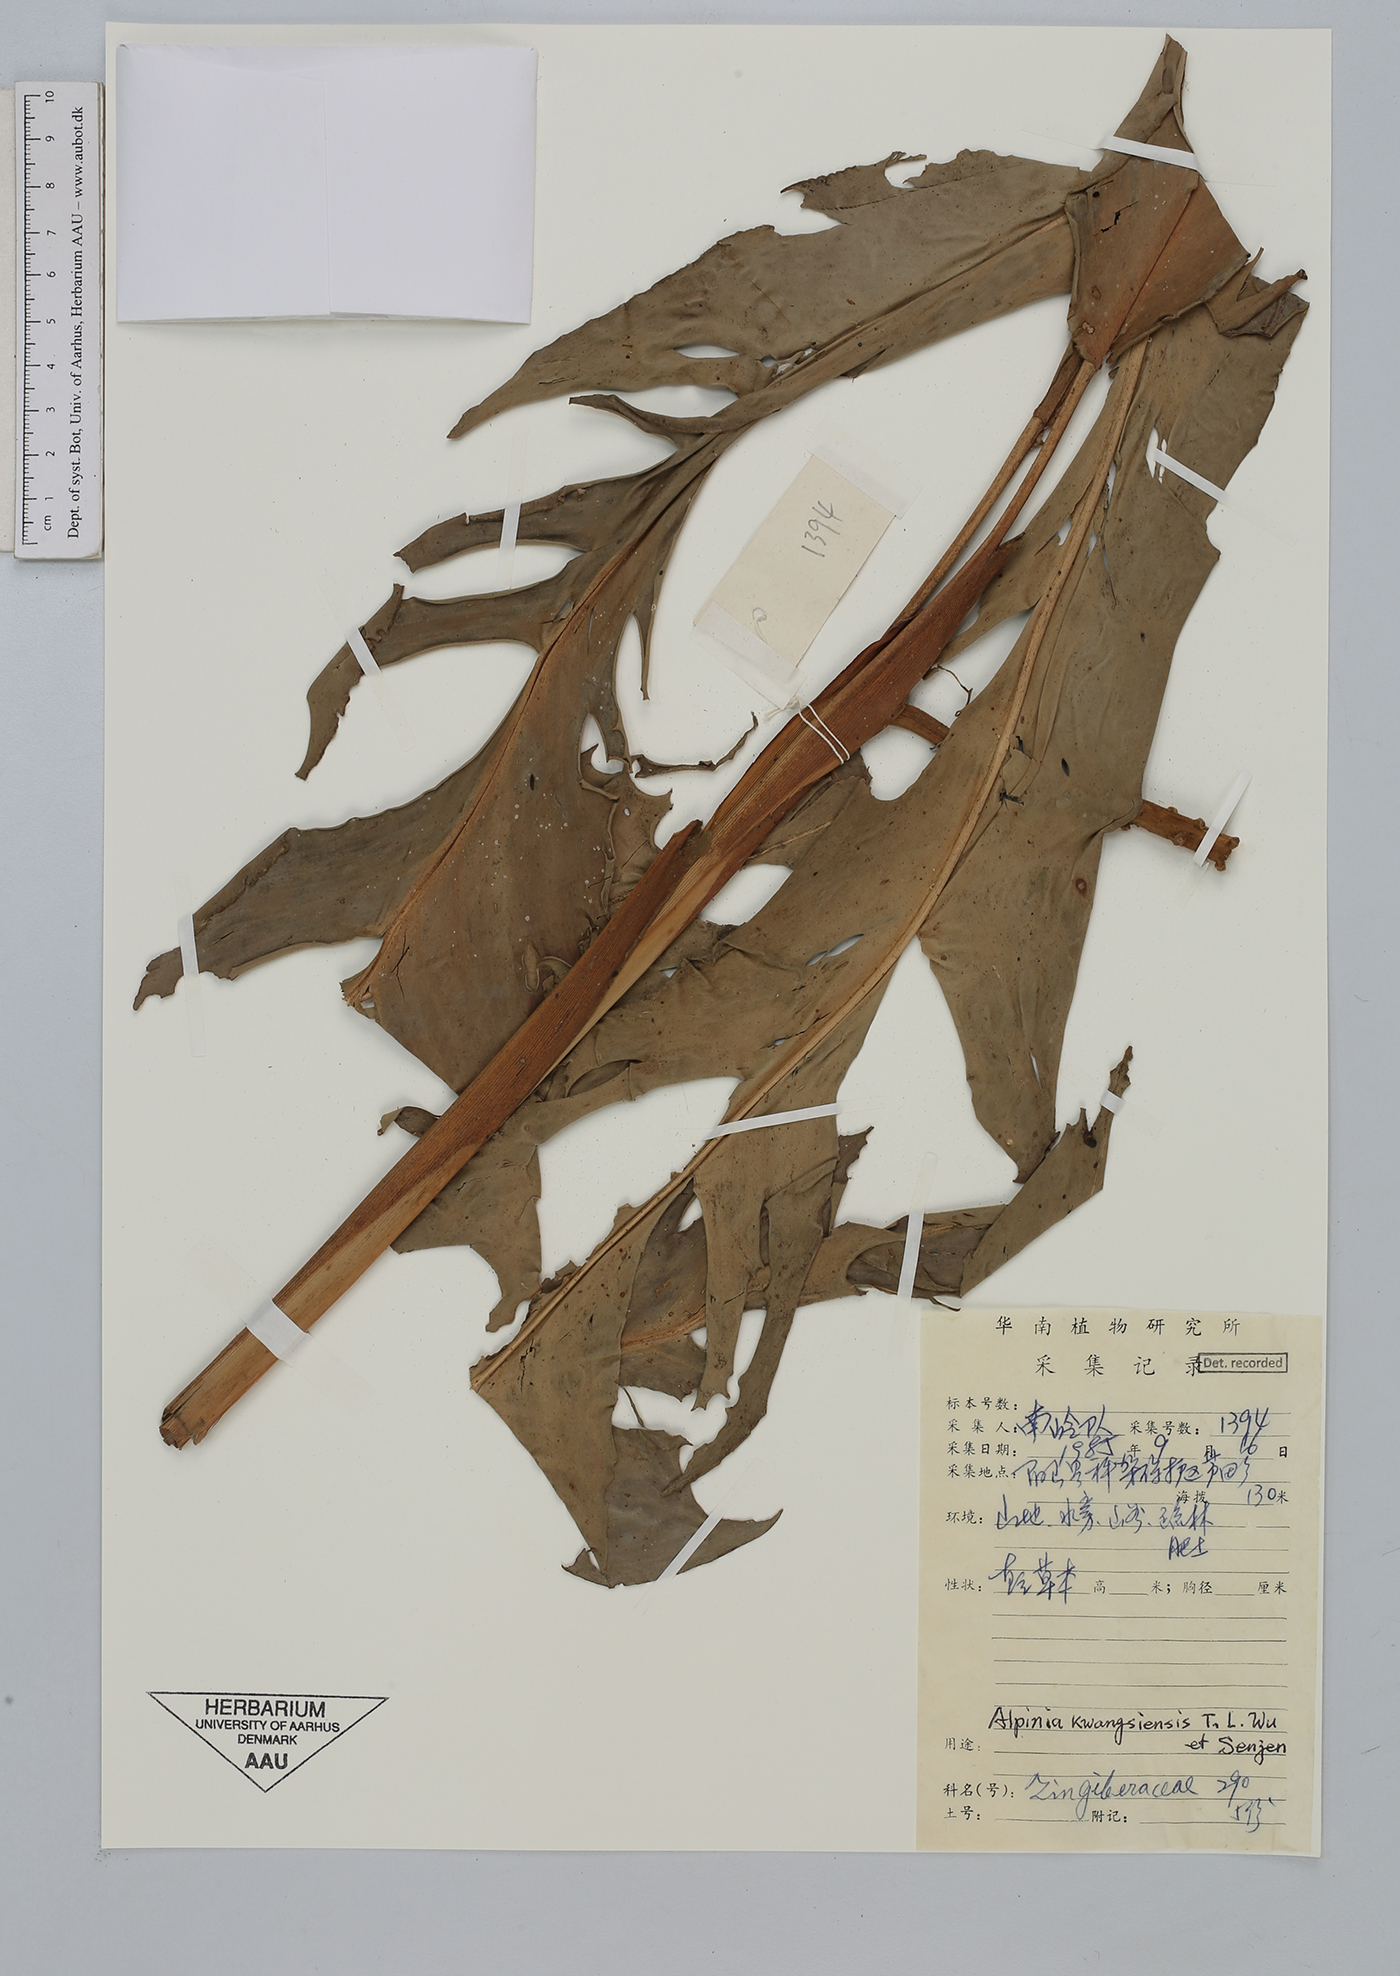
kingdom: Plantae
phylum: Tracheophyta
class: Liliopsida
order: Zingiberales
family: Zingiberaceae
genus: Alpinia
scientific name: Alpinia kwangsiensis
